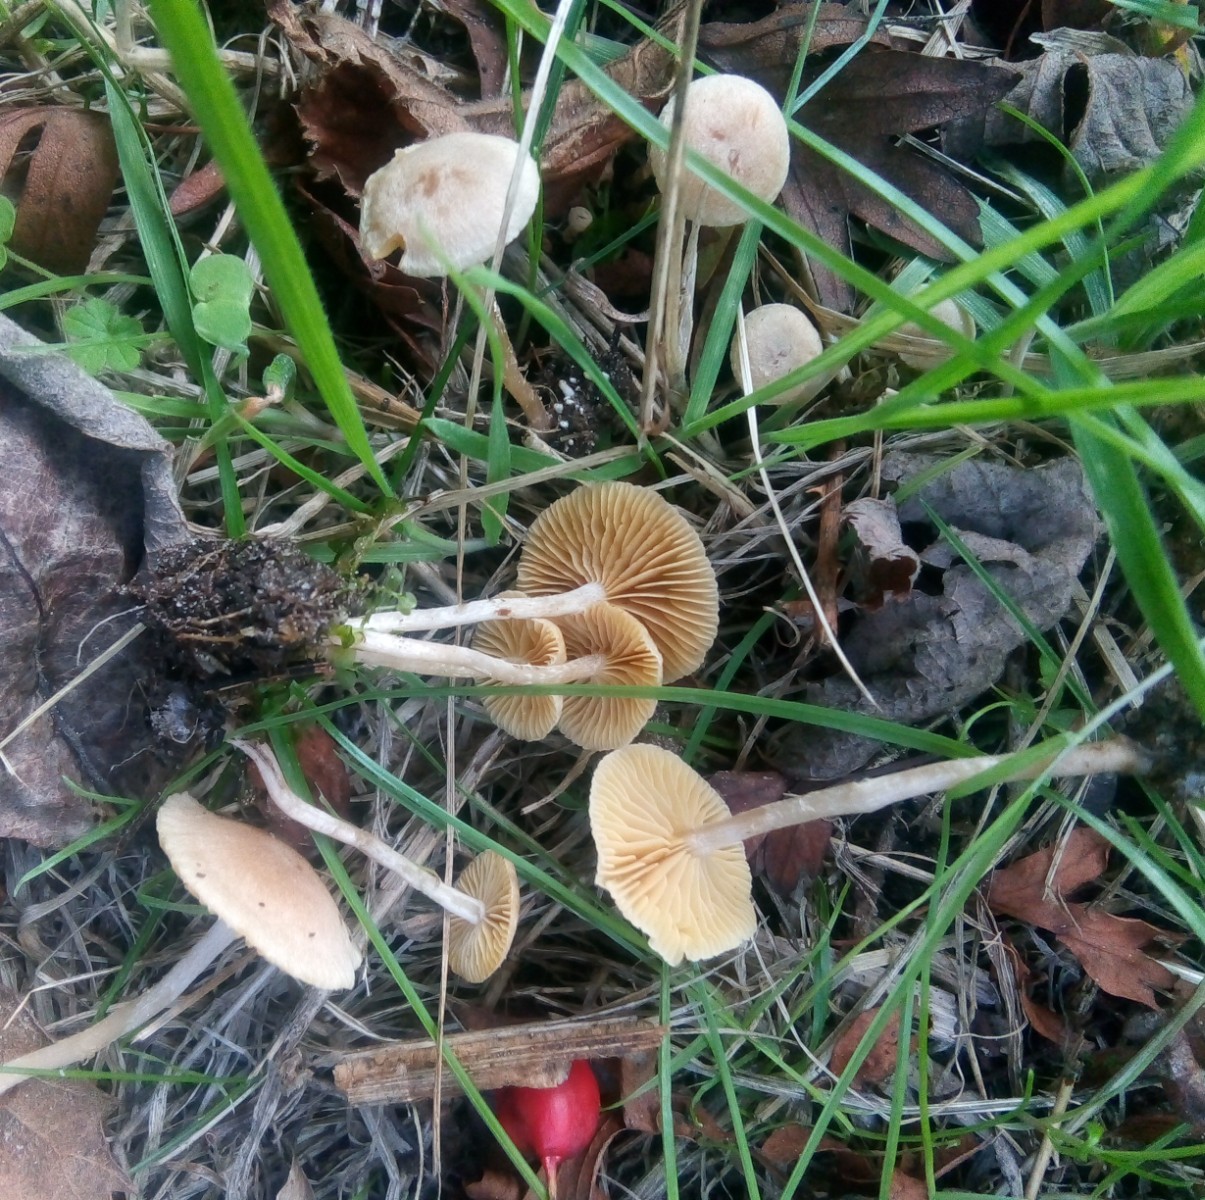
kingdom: Fungi
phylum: Basidiomycota
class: Agaricomycetes
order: Agaricales
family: Tubariaceae
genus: Tubaria
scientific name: Tubaria dispersa
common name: tjørne-fnughat
